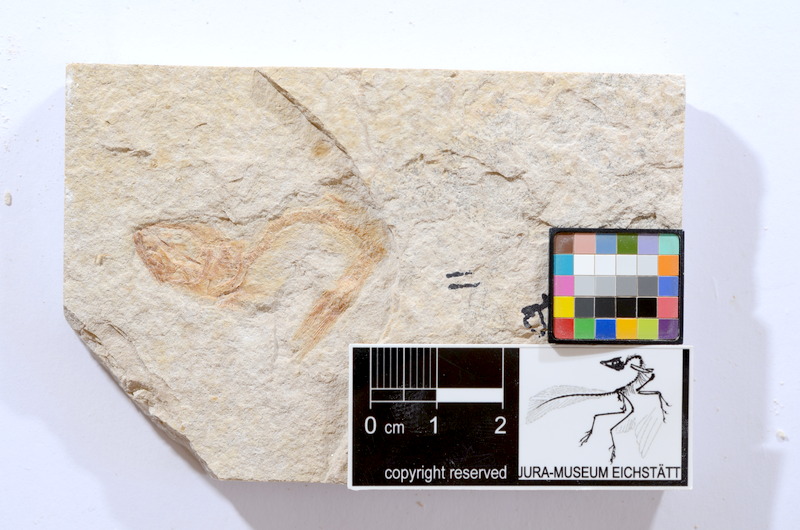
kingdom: Animalia
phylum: Chordata
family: Ascalaboidae
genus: Tharsis
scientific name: Tharsis dubius
